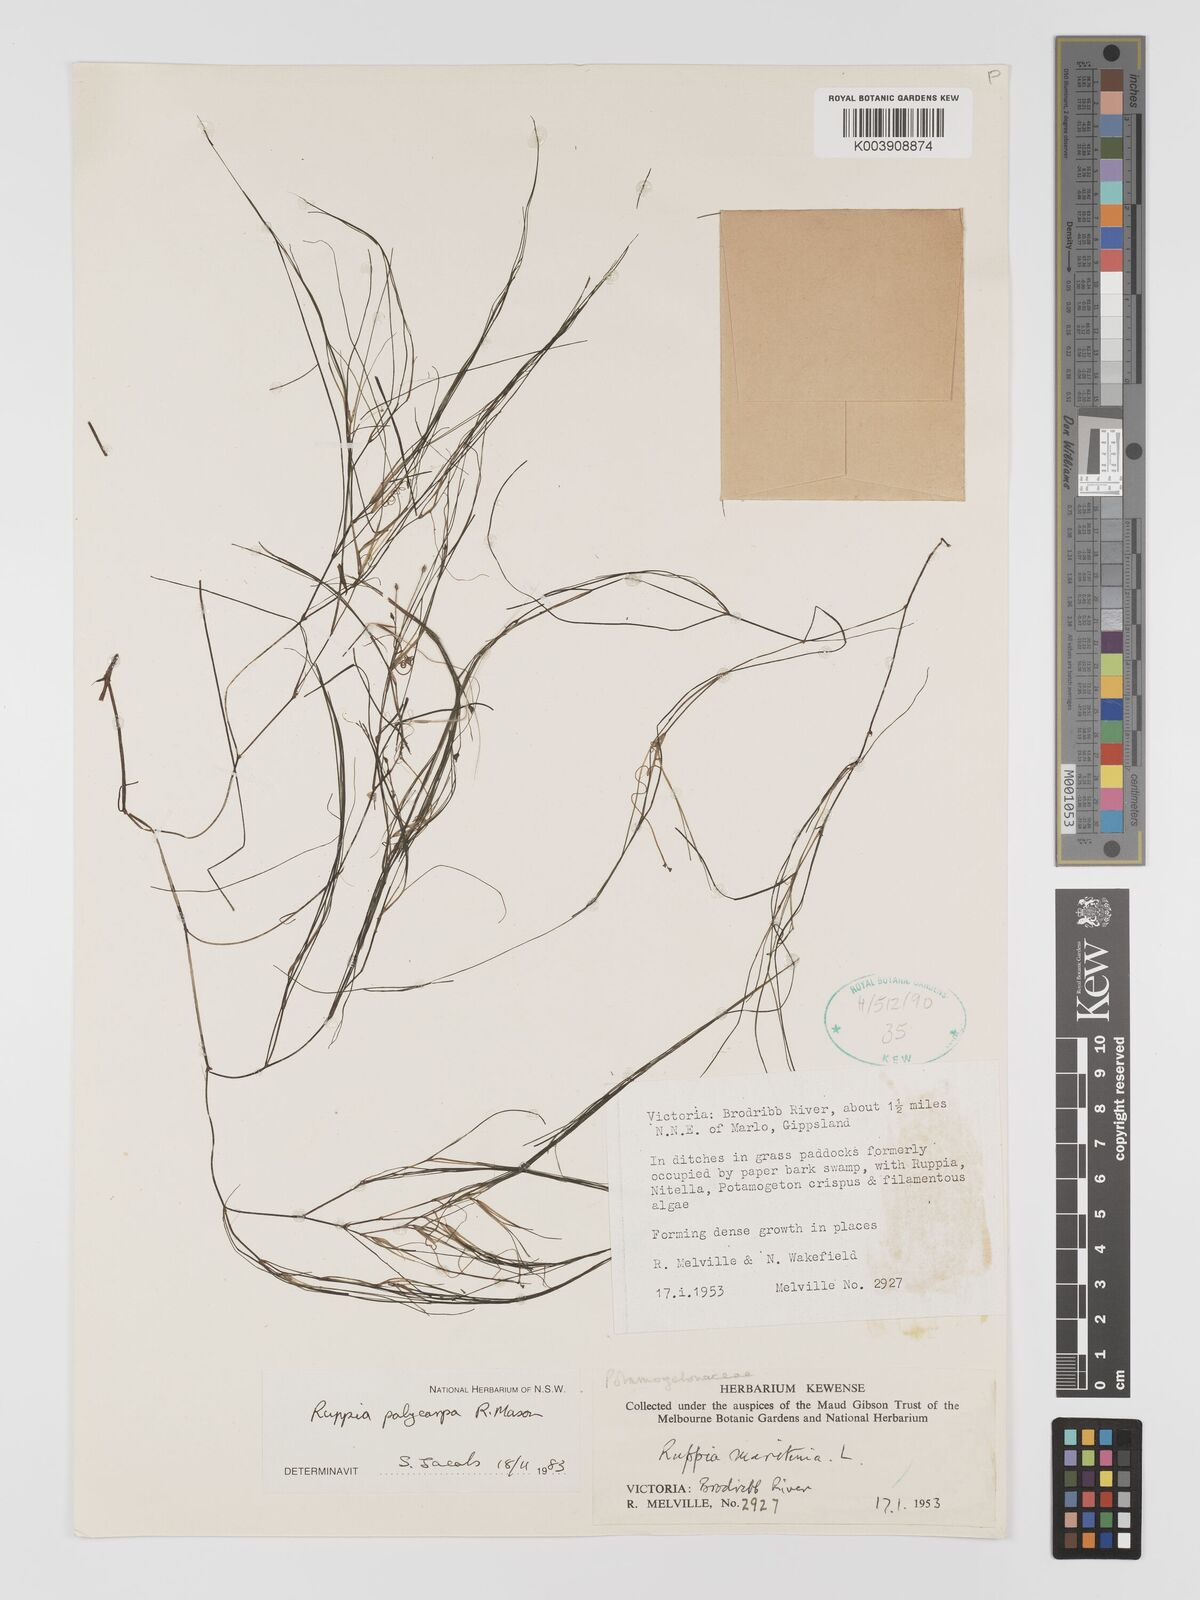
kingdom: Plantae
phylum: Tracheophyta
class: Liliopsida
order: Alismatales
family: Ruppiaceae
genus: Ruppia
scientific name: Ruppia polycarpa
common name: Species code: rp
